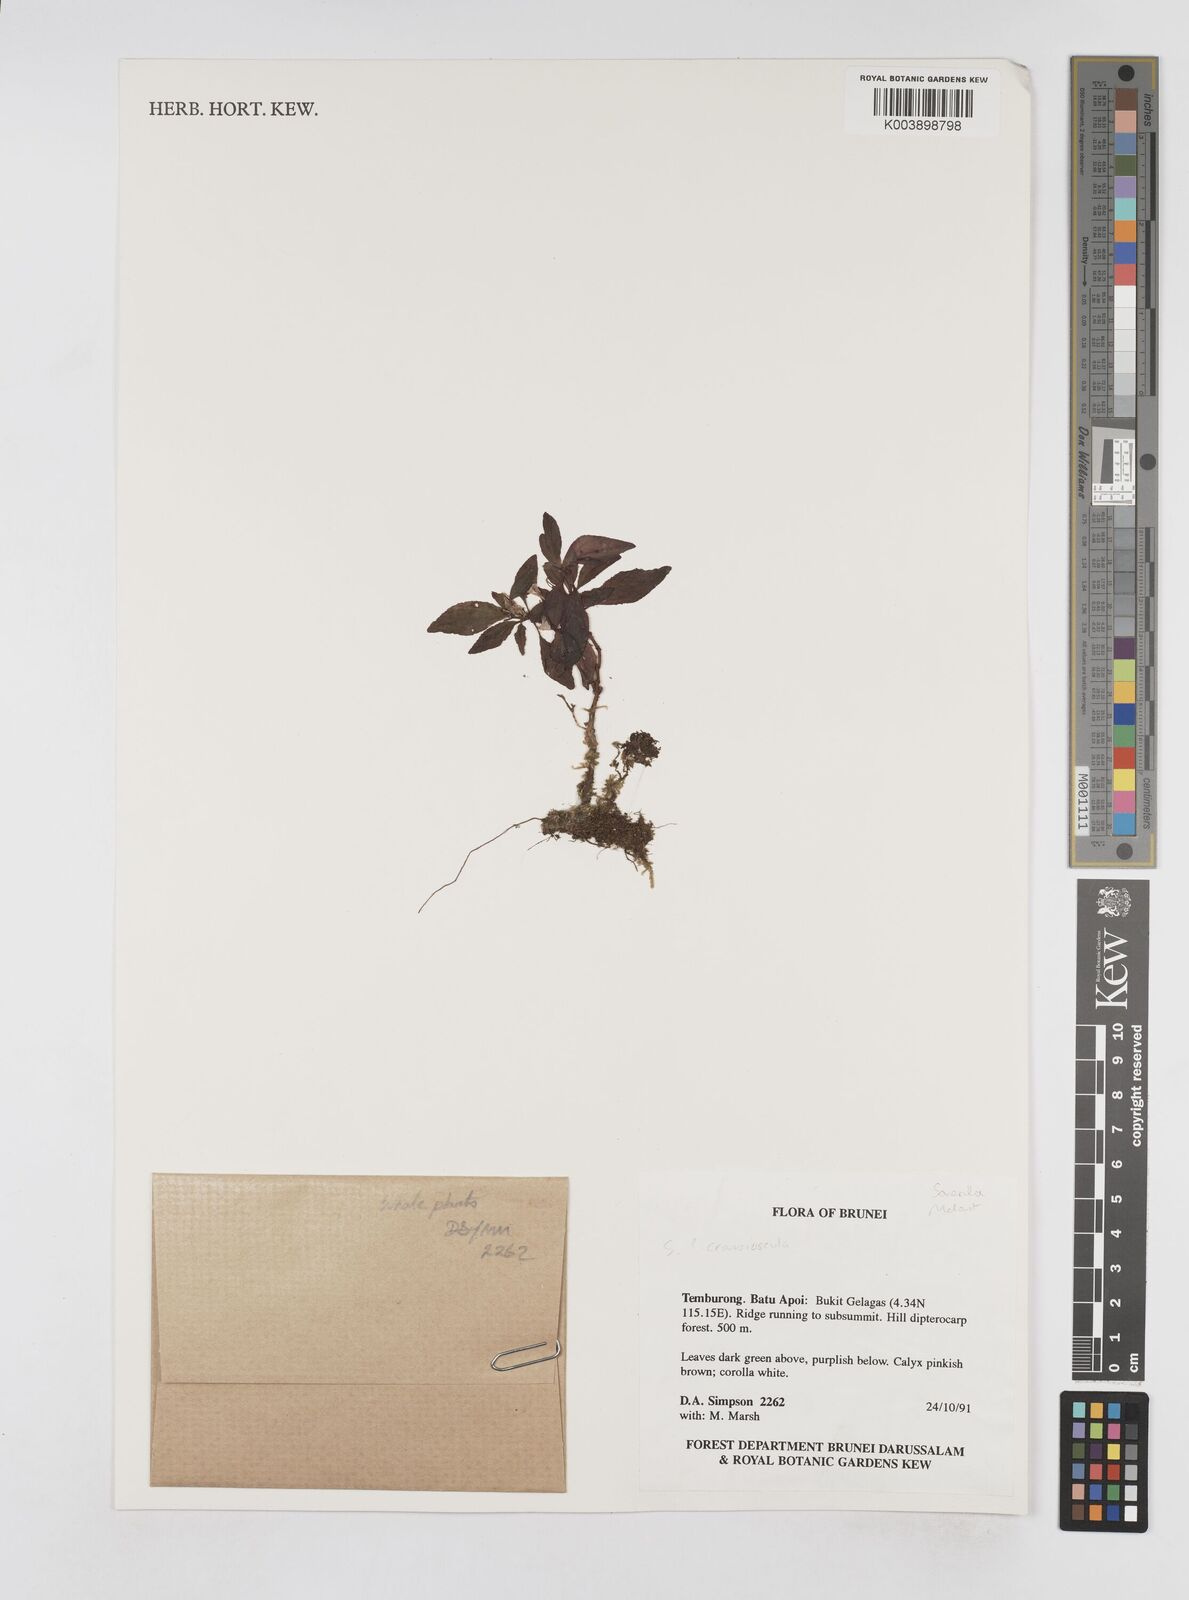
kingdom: Plantae
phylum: Tracheophyta
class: Magnoliopsida
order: Myrtales
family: Melastomataceae
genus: Sonerila
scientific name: Sonerila
